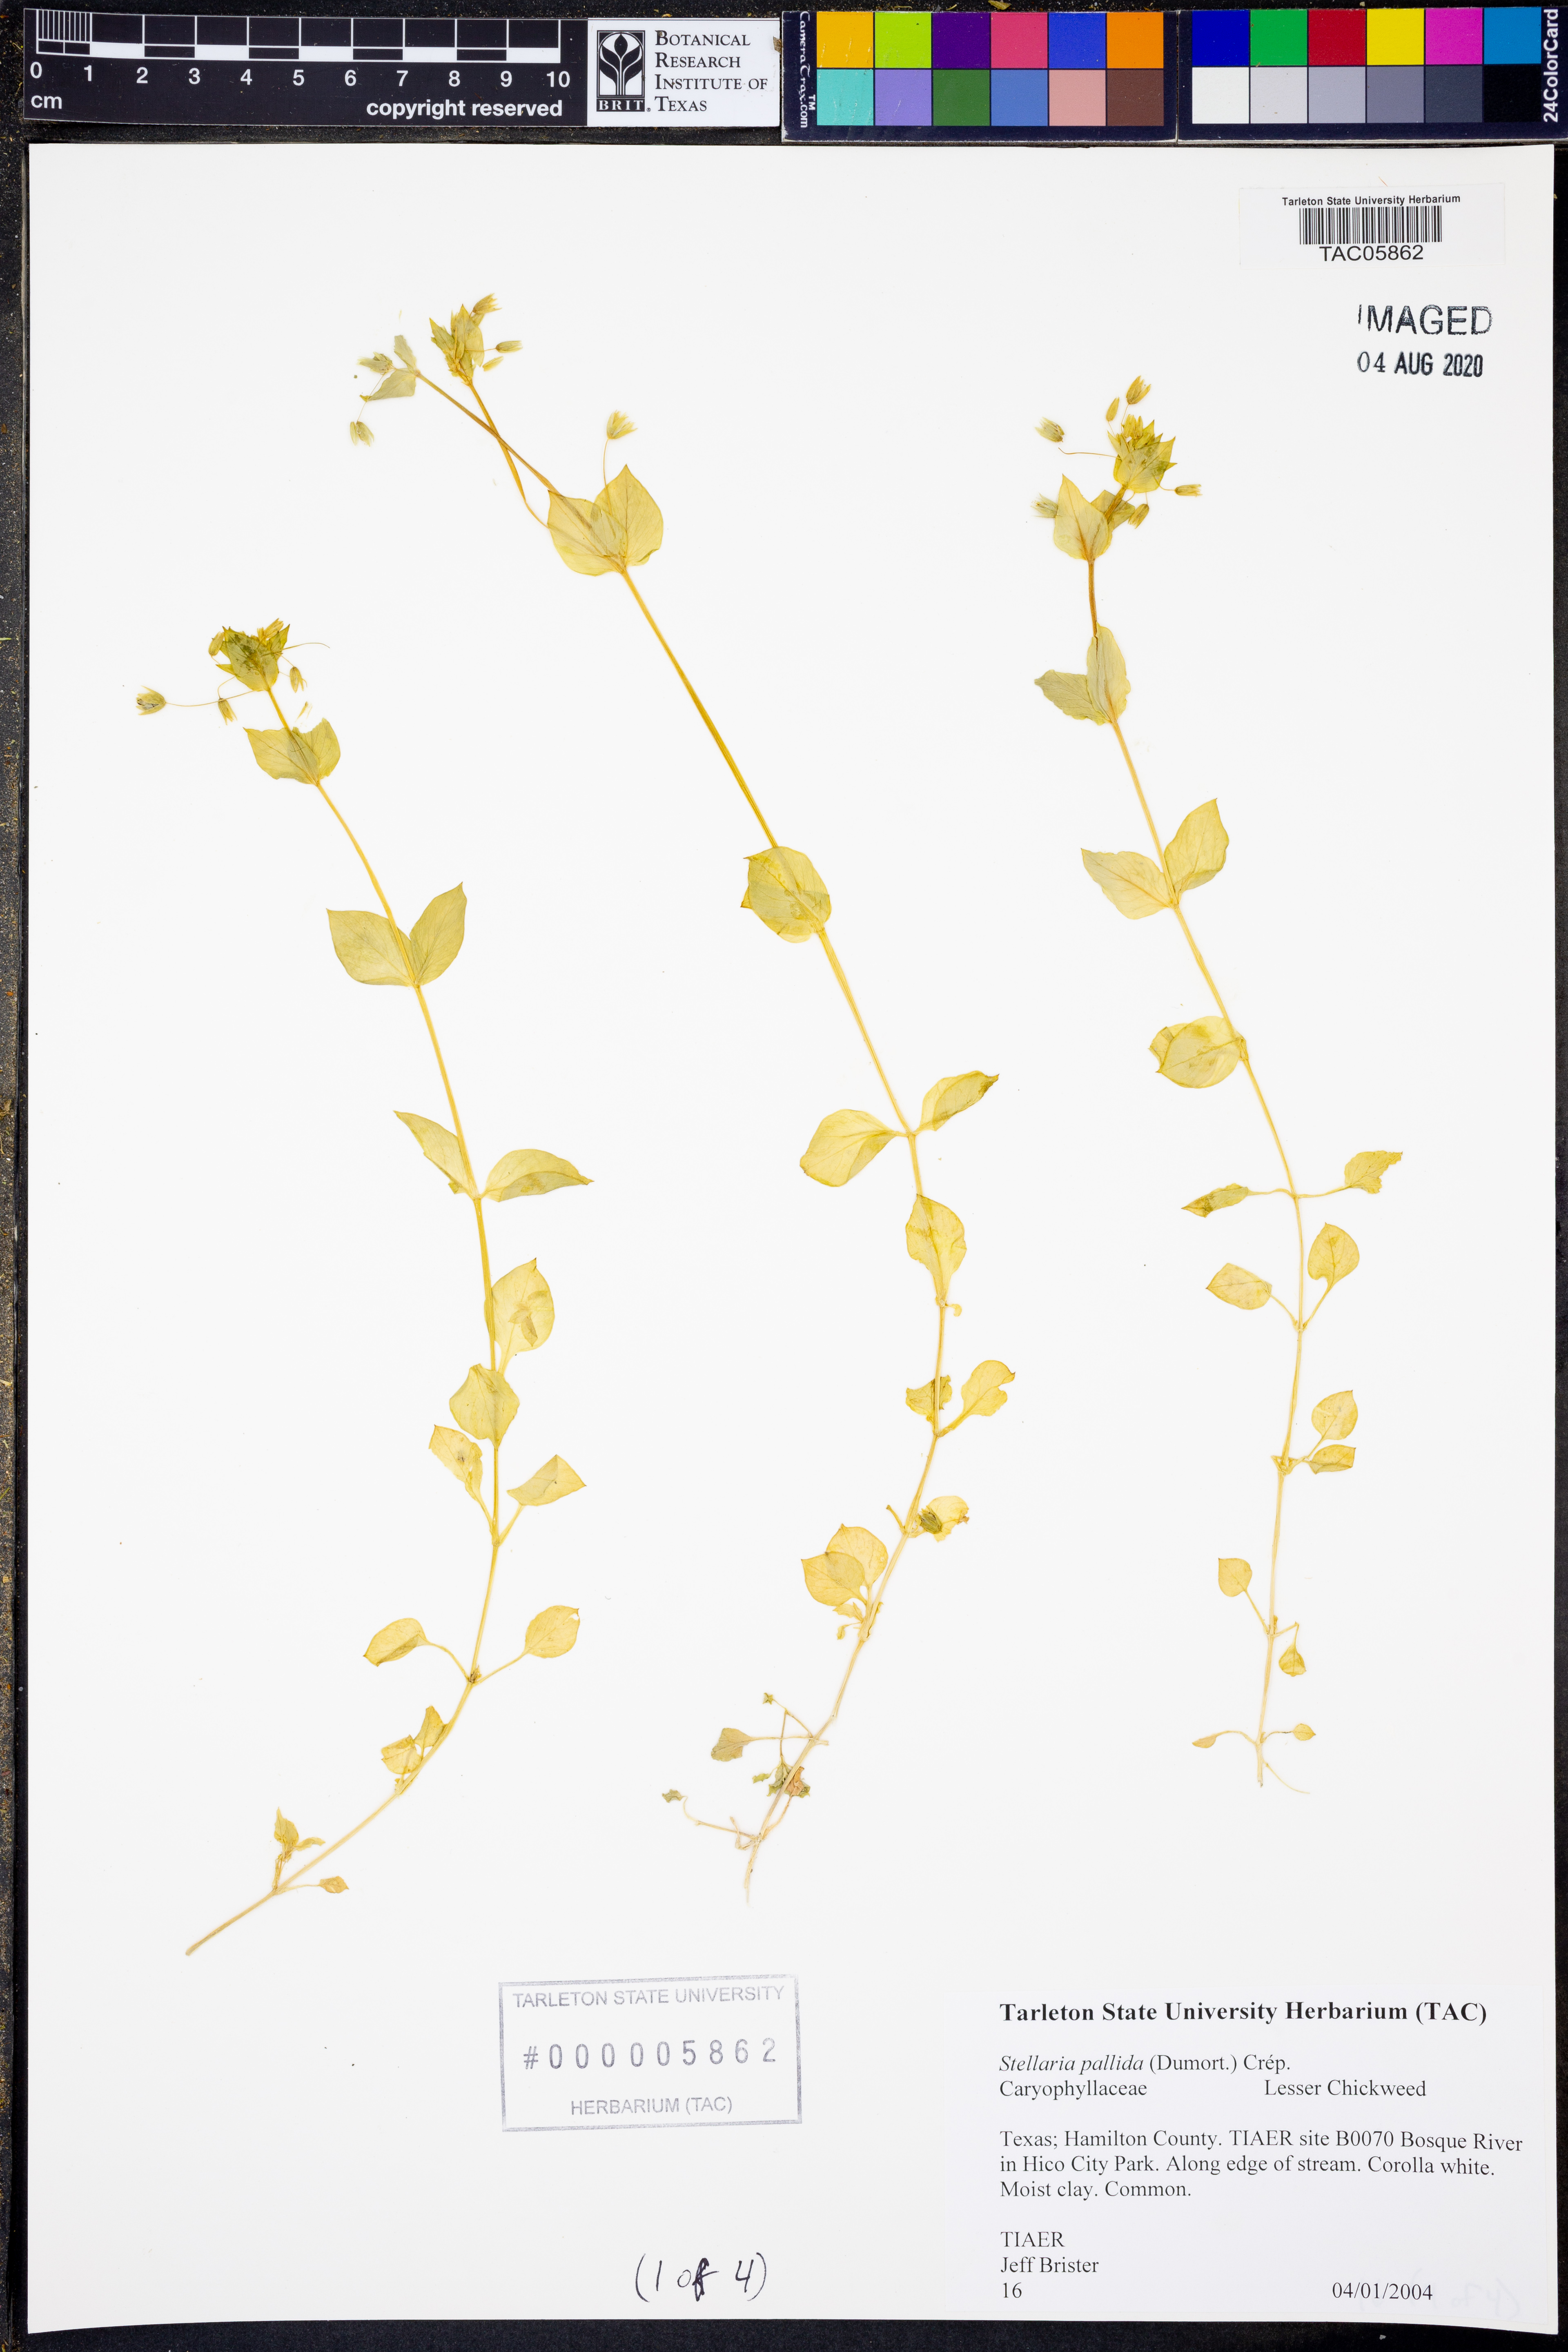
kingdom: Plantae
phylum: Tracheophyta
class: Magnoliopsida
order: Caryophyllales
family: Caryophyllaceae
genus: Stellaria
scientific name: Stellaria apetala
